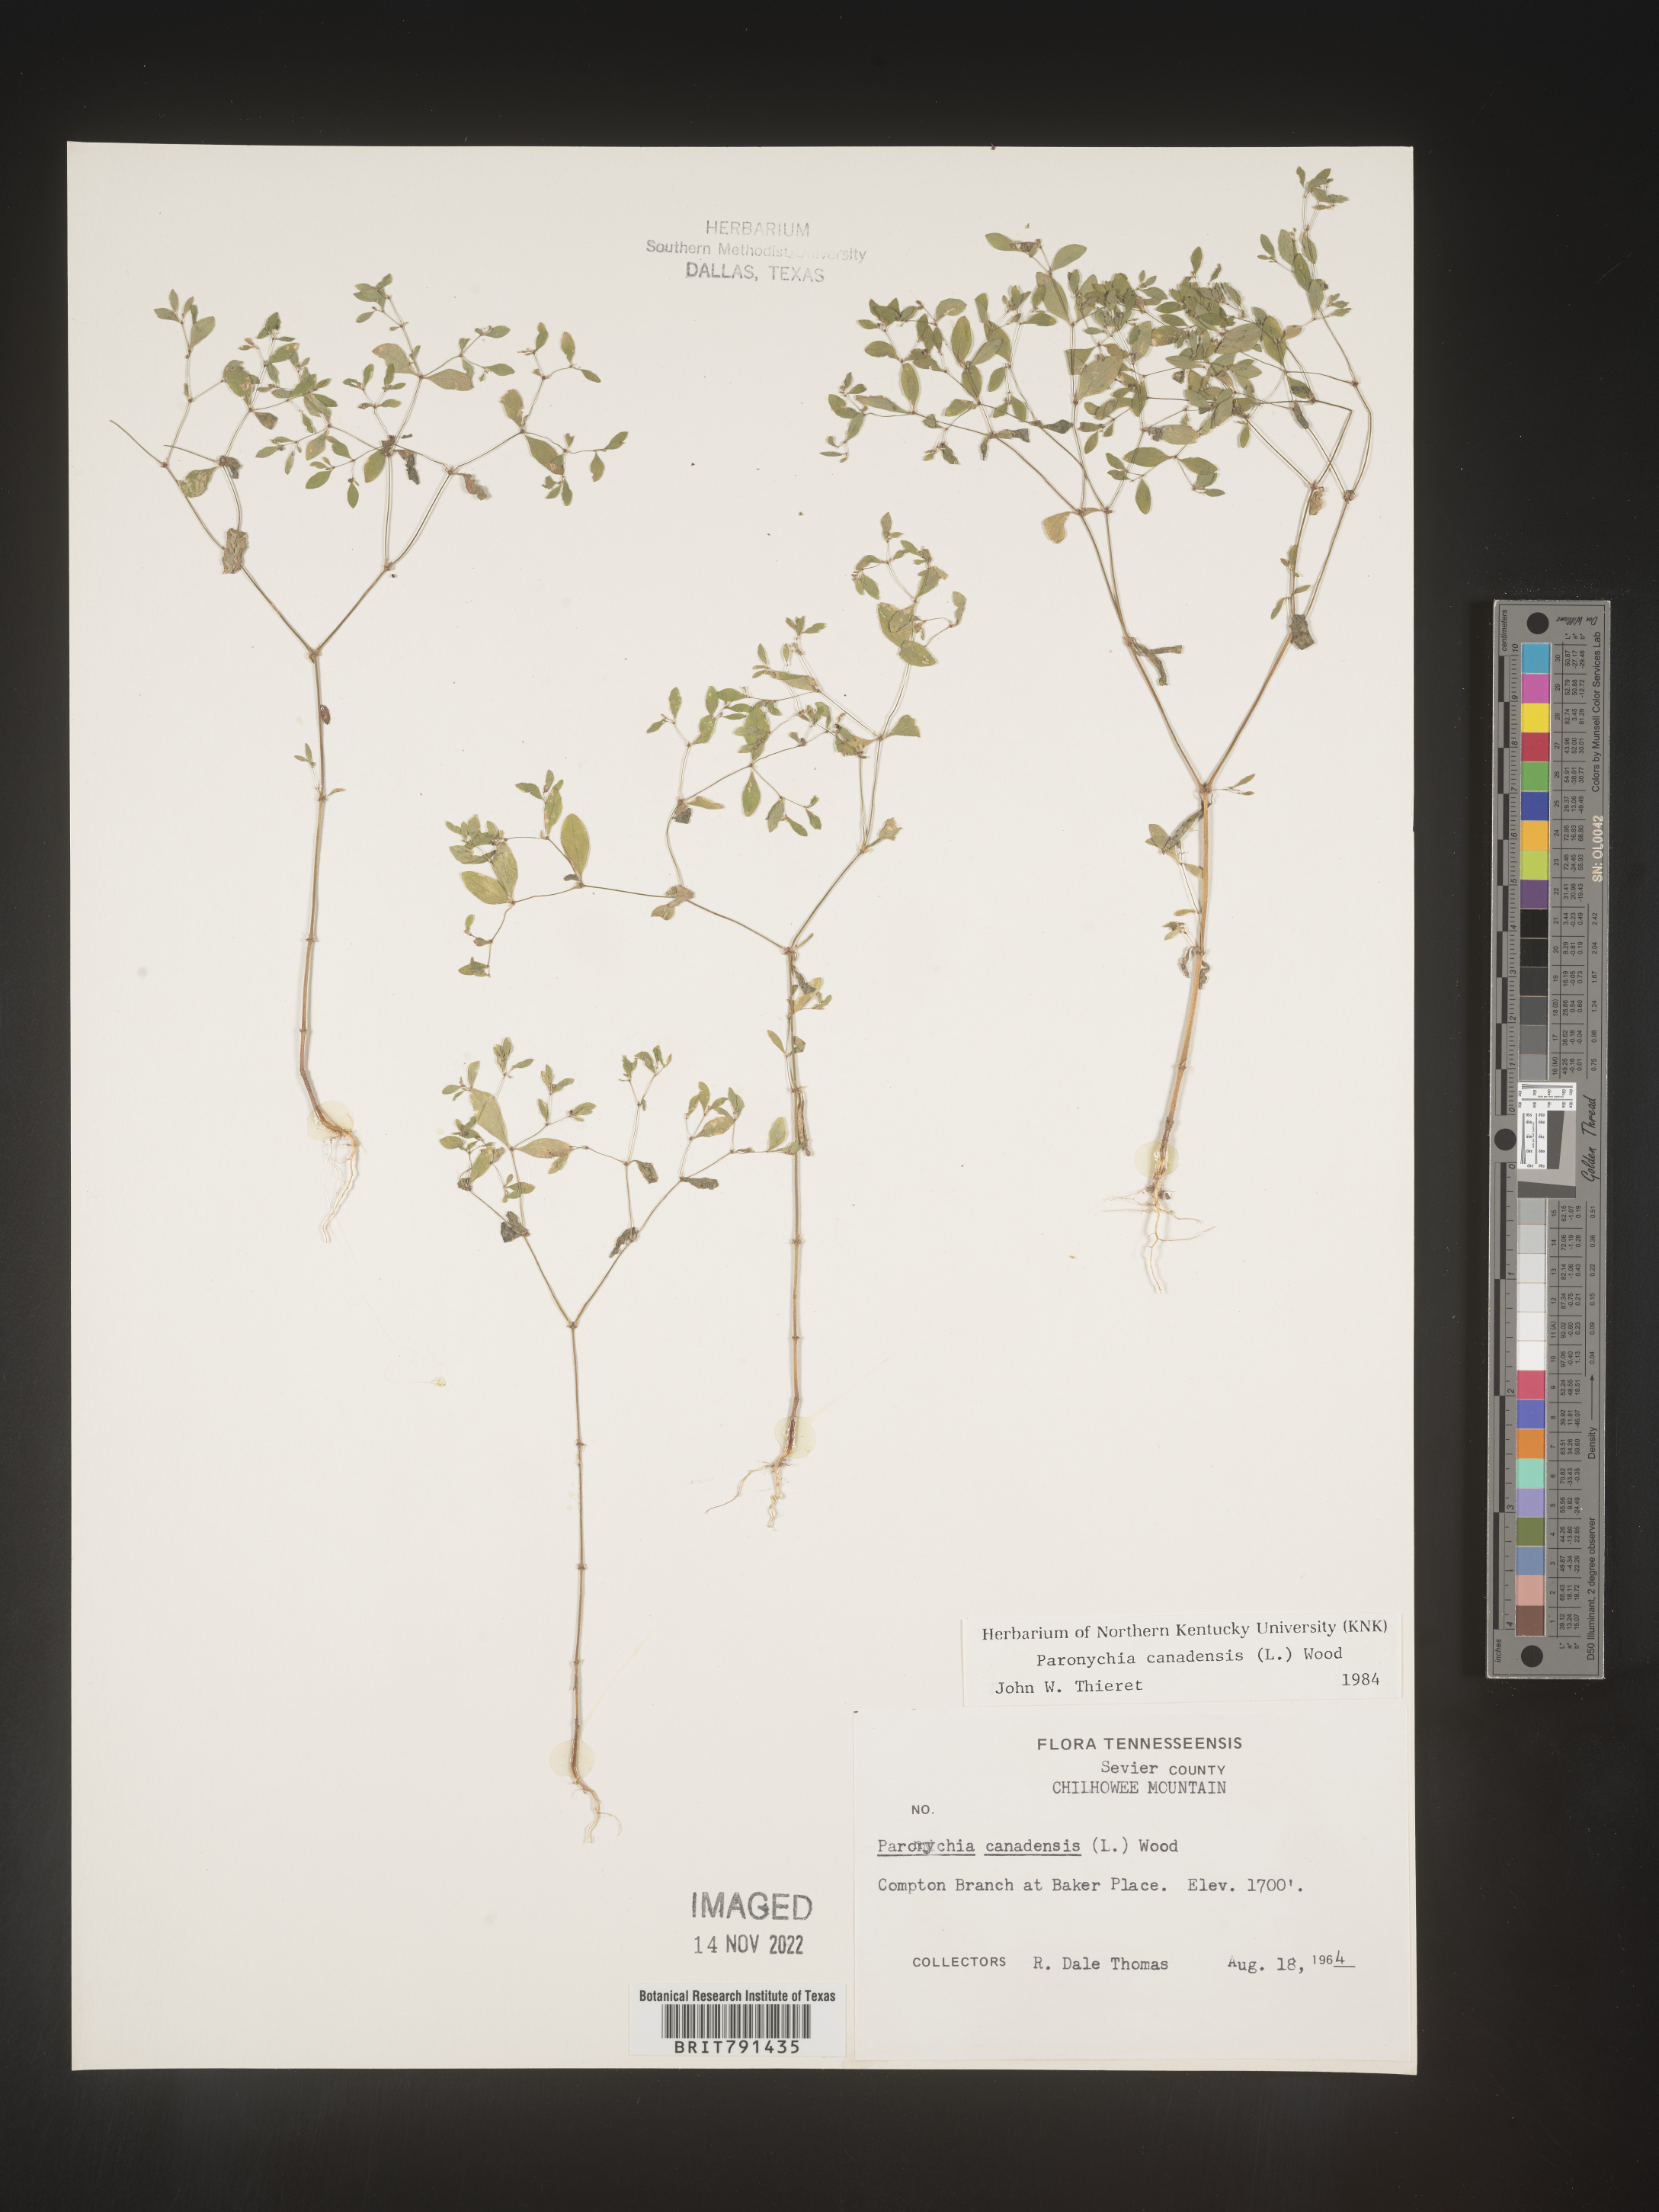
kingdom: Plantae
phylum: Tracheophyta
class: Magnoliopsida
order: Caryophyllales
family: Caryophyllaceae
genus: Paronychia
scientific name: Paronychia canadensis
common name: Canada forked nailwort
